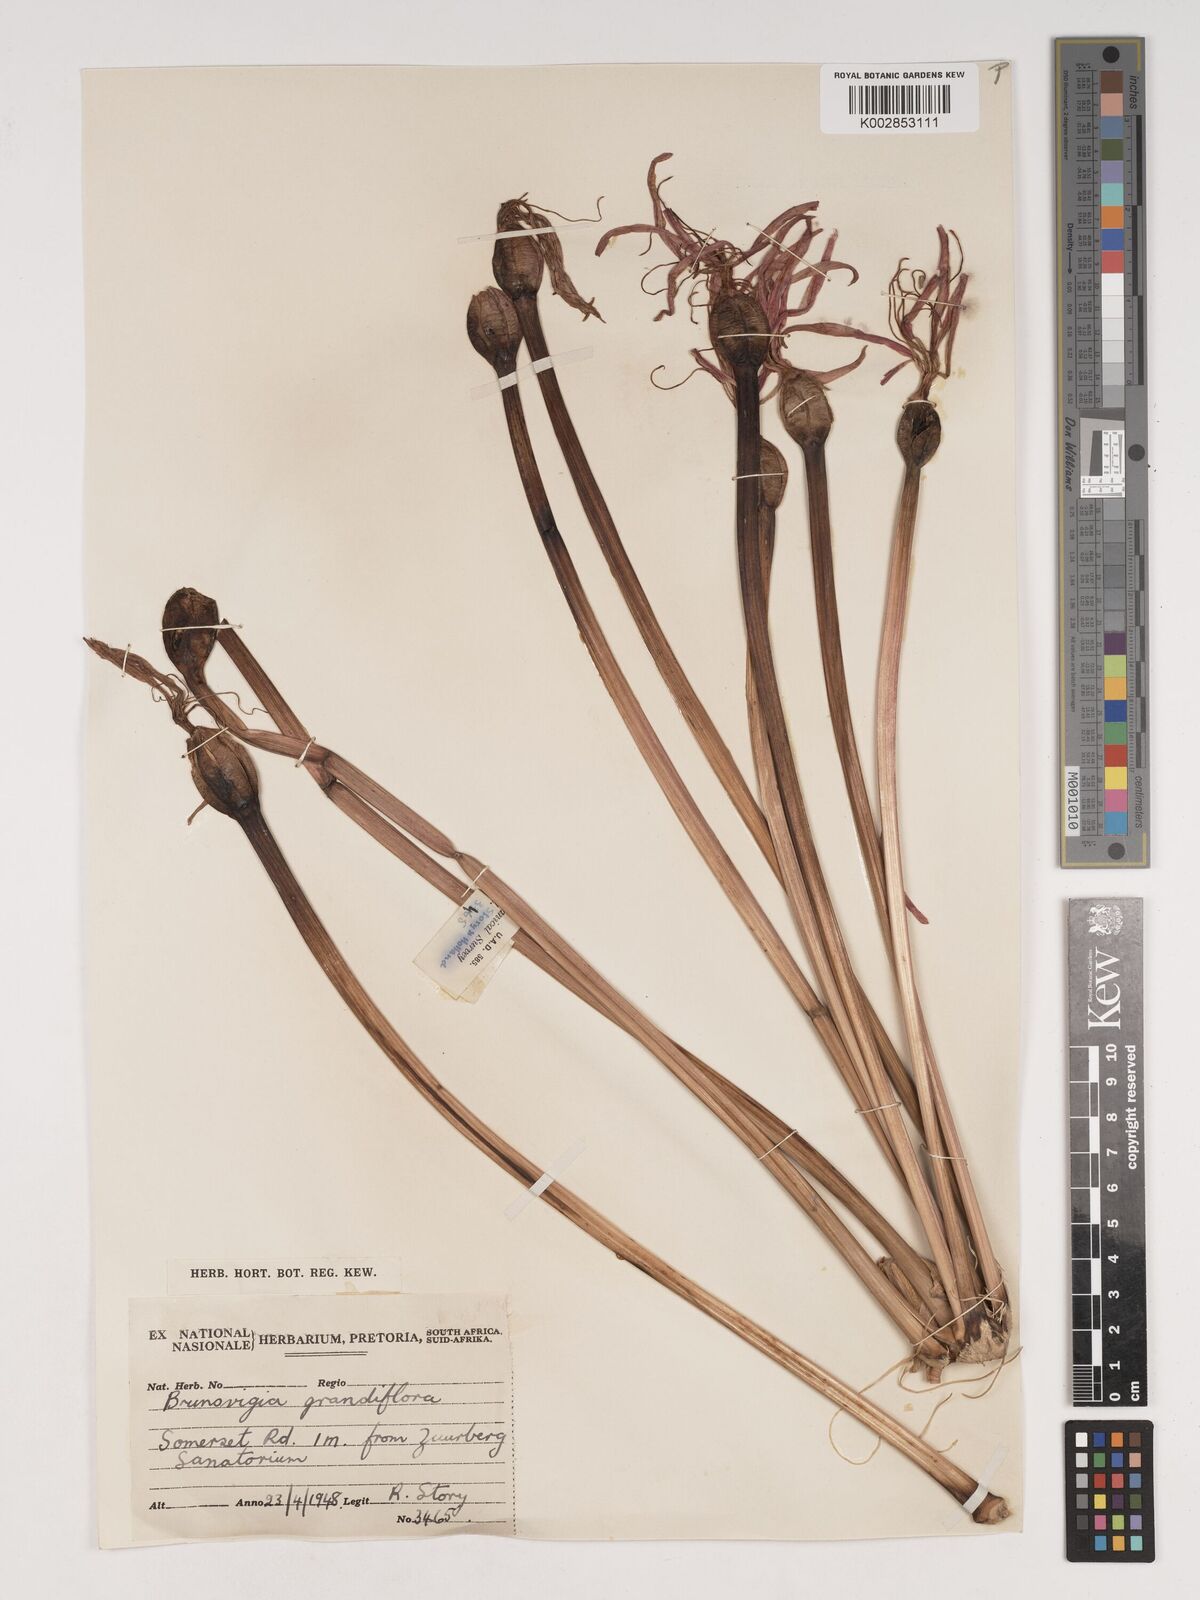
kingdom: Plantae
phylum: Tracheophyta
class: Liliopsida
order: Asparagales
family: Amaryllidaceae
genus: Brunsvigia
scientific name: Brunsvigia grandiflora
